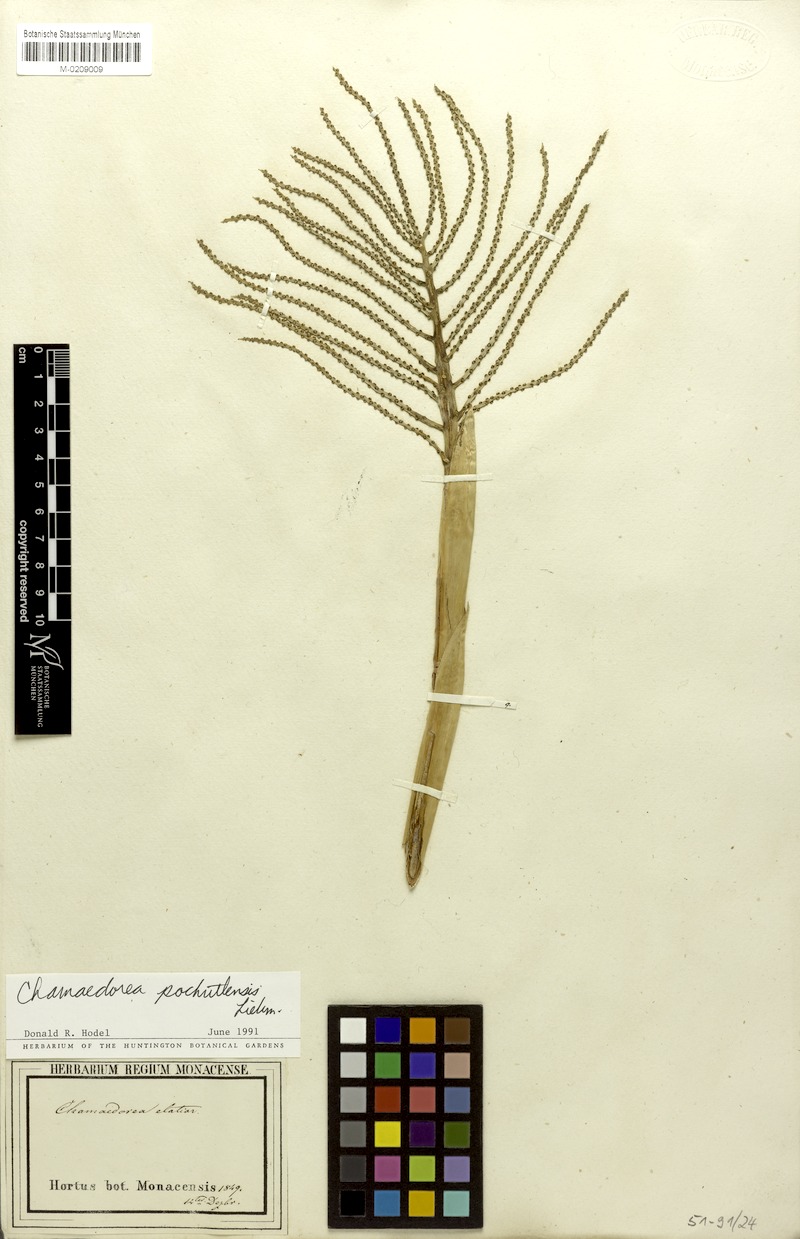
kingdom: Plantae
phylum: Tracheophyta
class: Liliopsida
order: Arecales
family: Arecaceae
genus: Chamaedorea
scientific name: Chamaedorea pochutlensis
